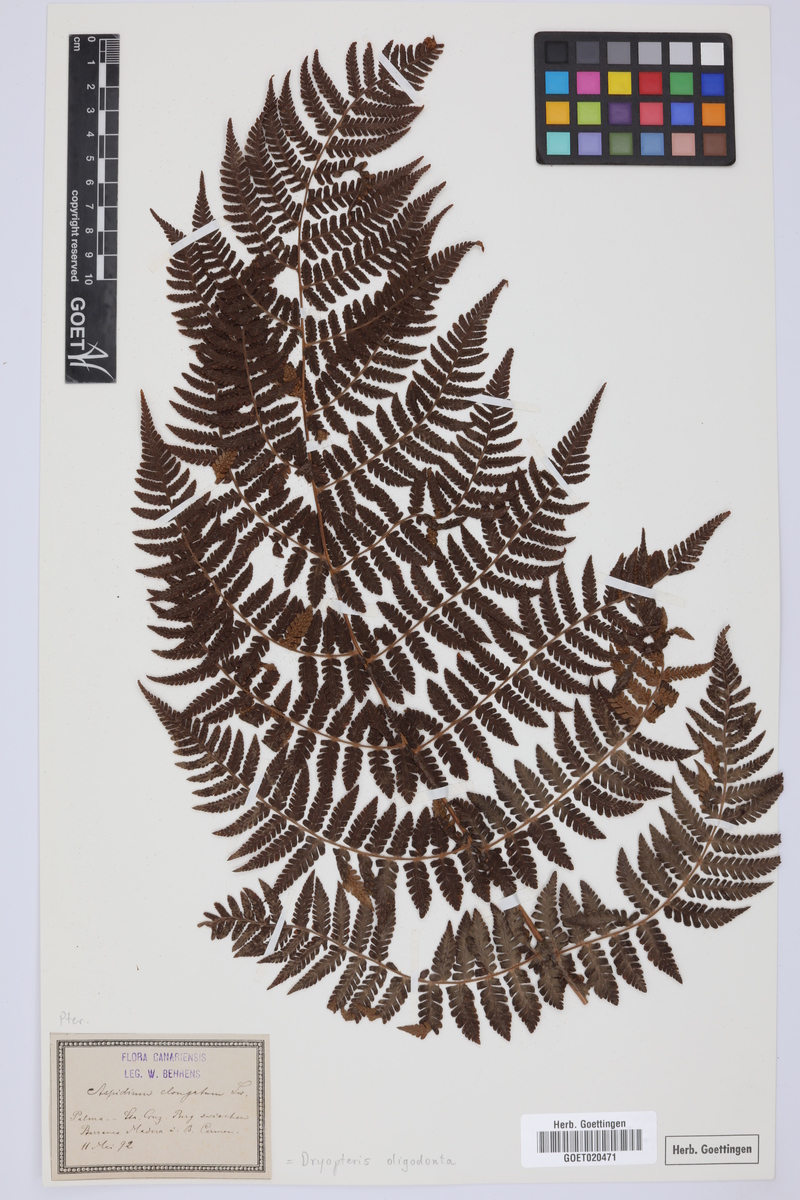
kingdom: Plantae
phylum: Tracheophyta
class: Polypodiopsida
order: Polypodiales
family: Dryopteridaceae
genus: Dryopteris
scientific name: Dryopteris oligodonta
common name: Canarian male-fern
